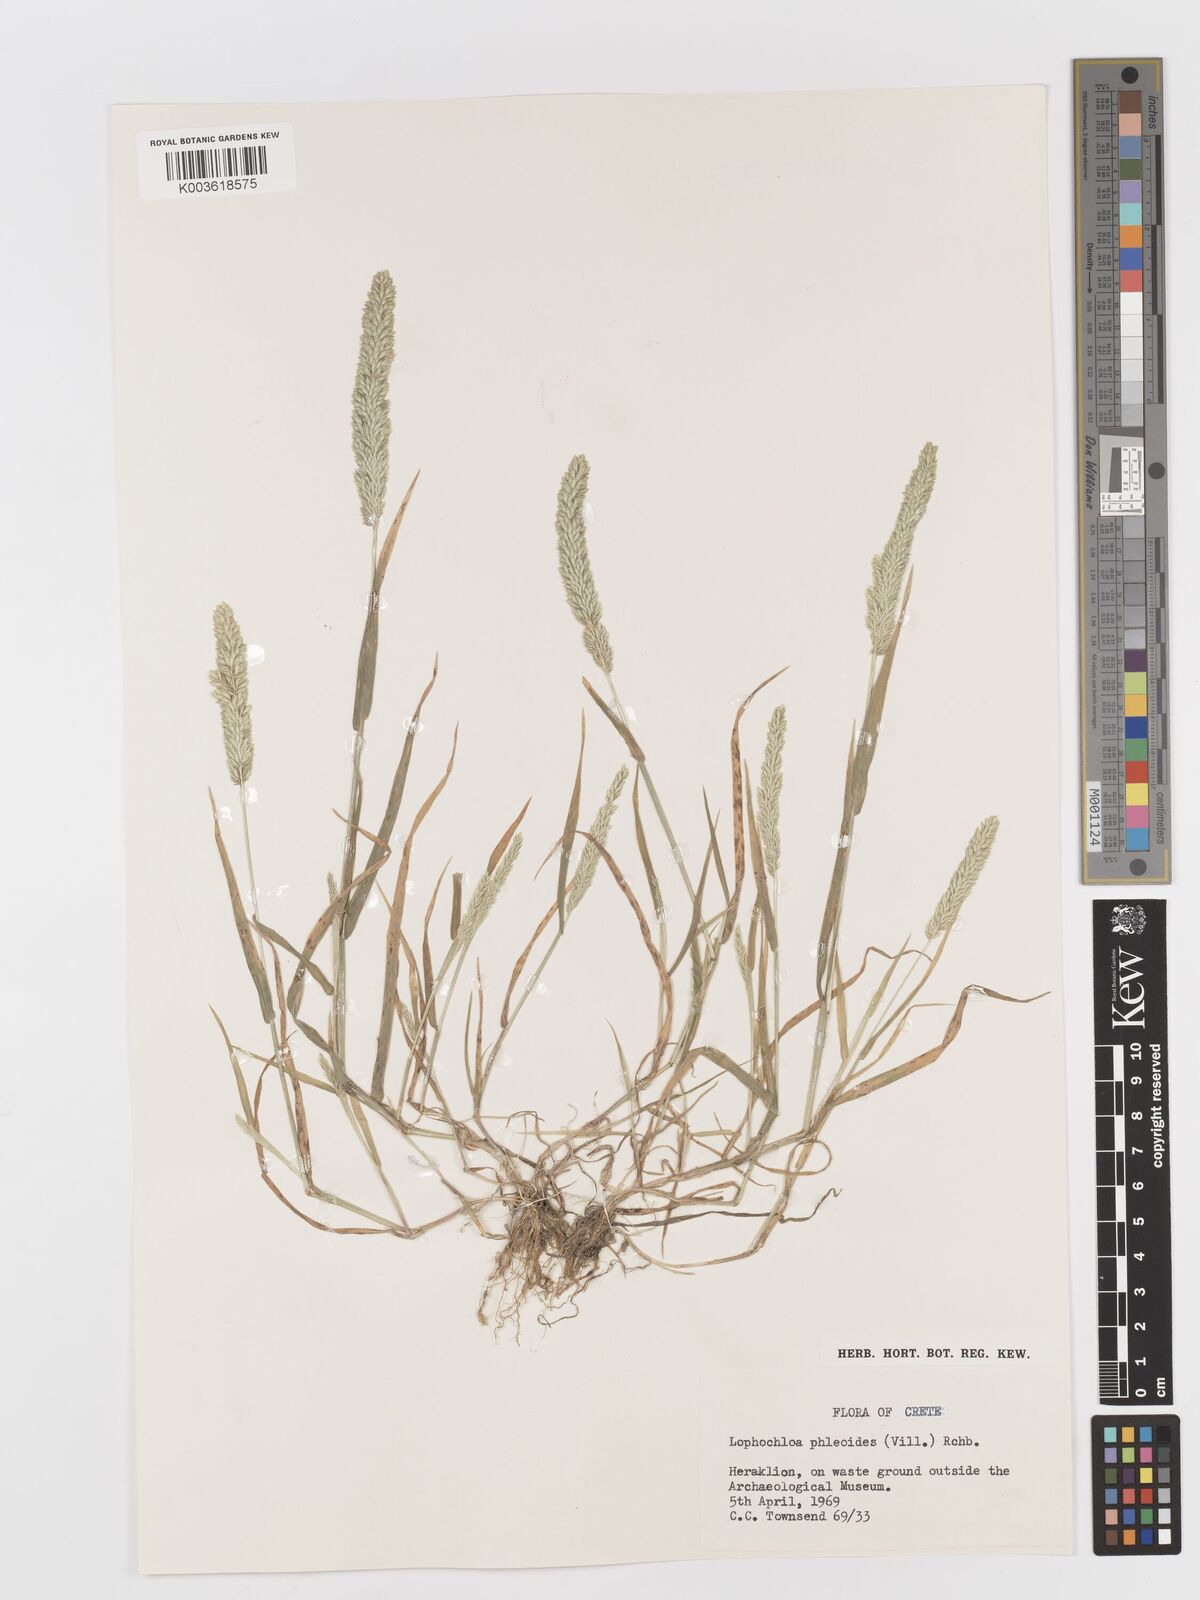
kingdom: Plantae
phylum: Tracheophyta
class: Liliopsida
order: Poales
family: Poaceae
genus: Rostraria
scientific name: Rostraria cristata
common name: Mediterranean hair-grass
